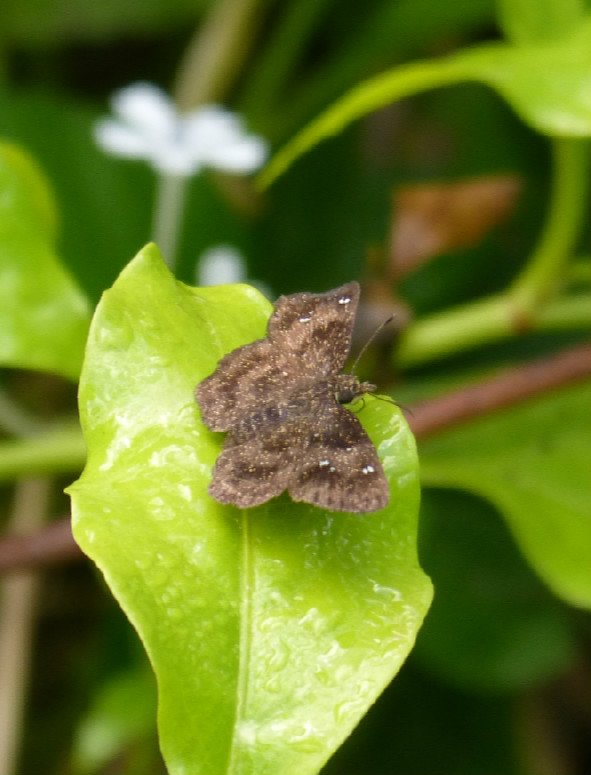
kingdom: Animalia
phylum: Arthropoda
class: Insecta
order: Lepidoptera
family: Hesperiidae
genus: Staphylus
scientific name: Staphylus mazans
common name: Mazans Scallopwing
